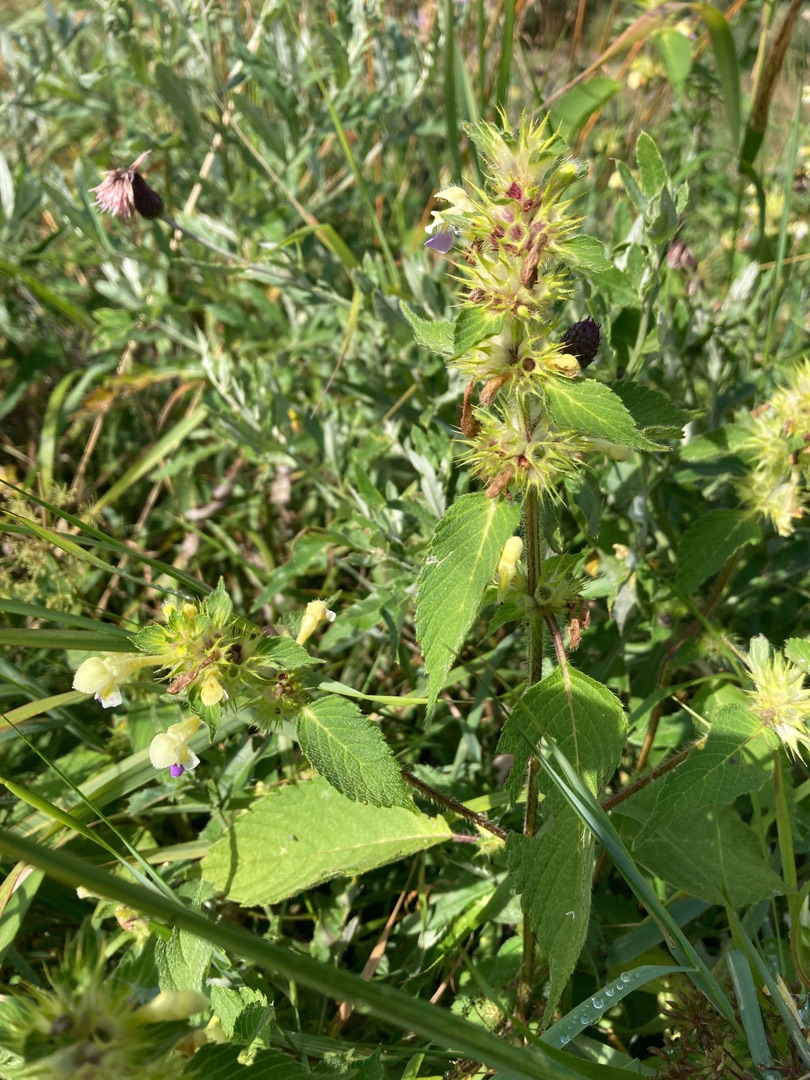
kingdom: Plantae
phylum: Tracheophyta
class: Magnoliopsida
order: Lamiales
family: Lamiaceae
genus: Galeopsis
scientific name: Galeopsis speciosa
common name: Hamp-hanekro
